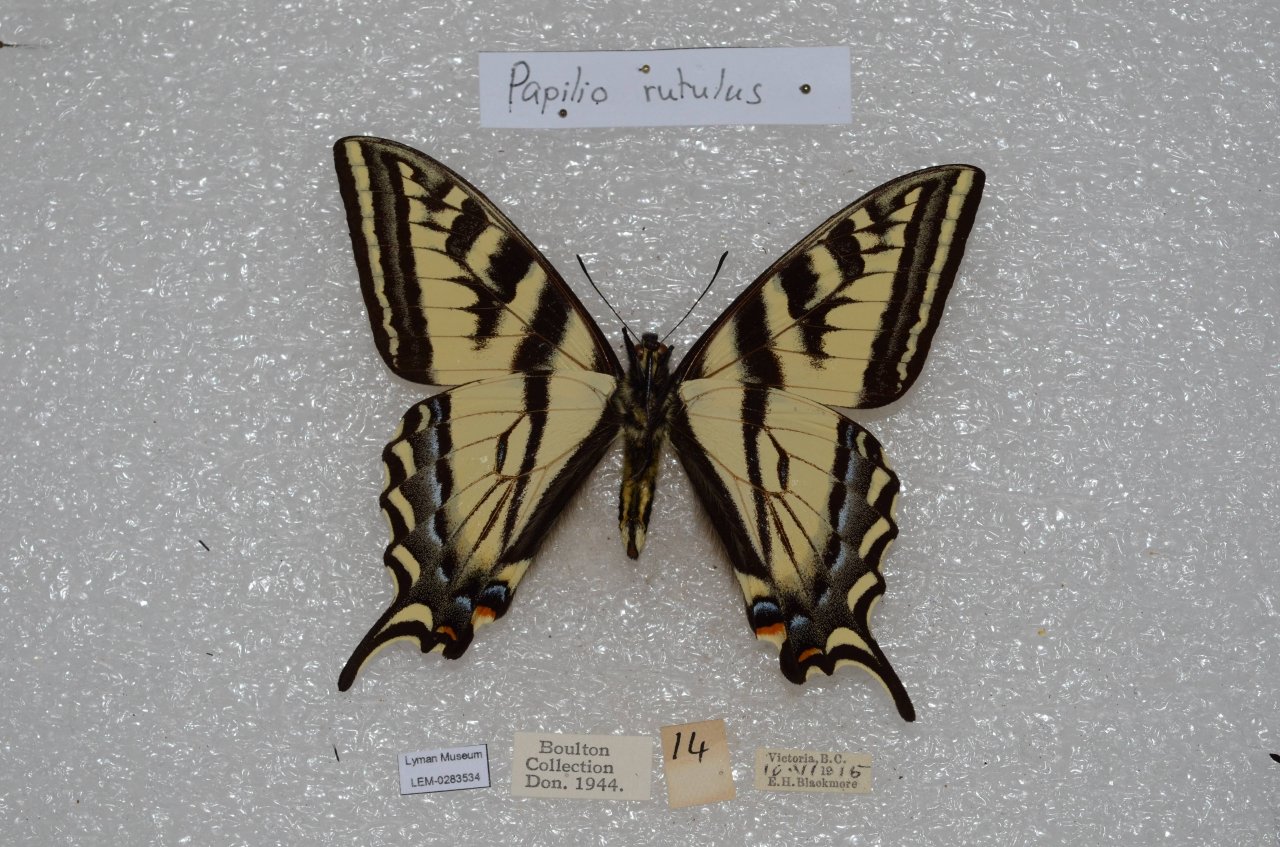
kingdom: Animalia
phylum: Arthropoda
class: Insecta
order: Lepidoptera
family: Papilionidae
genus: Pterourus
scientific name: Pterourus rutulus
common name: Western Tiger Swallowtail
